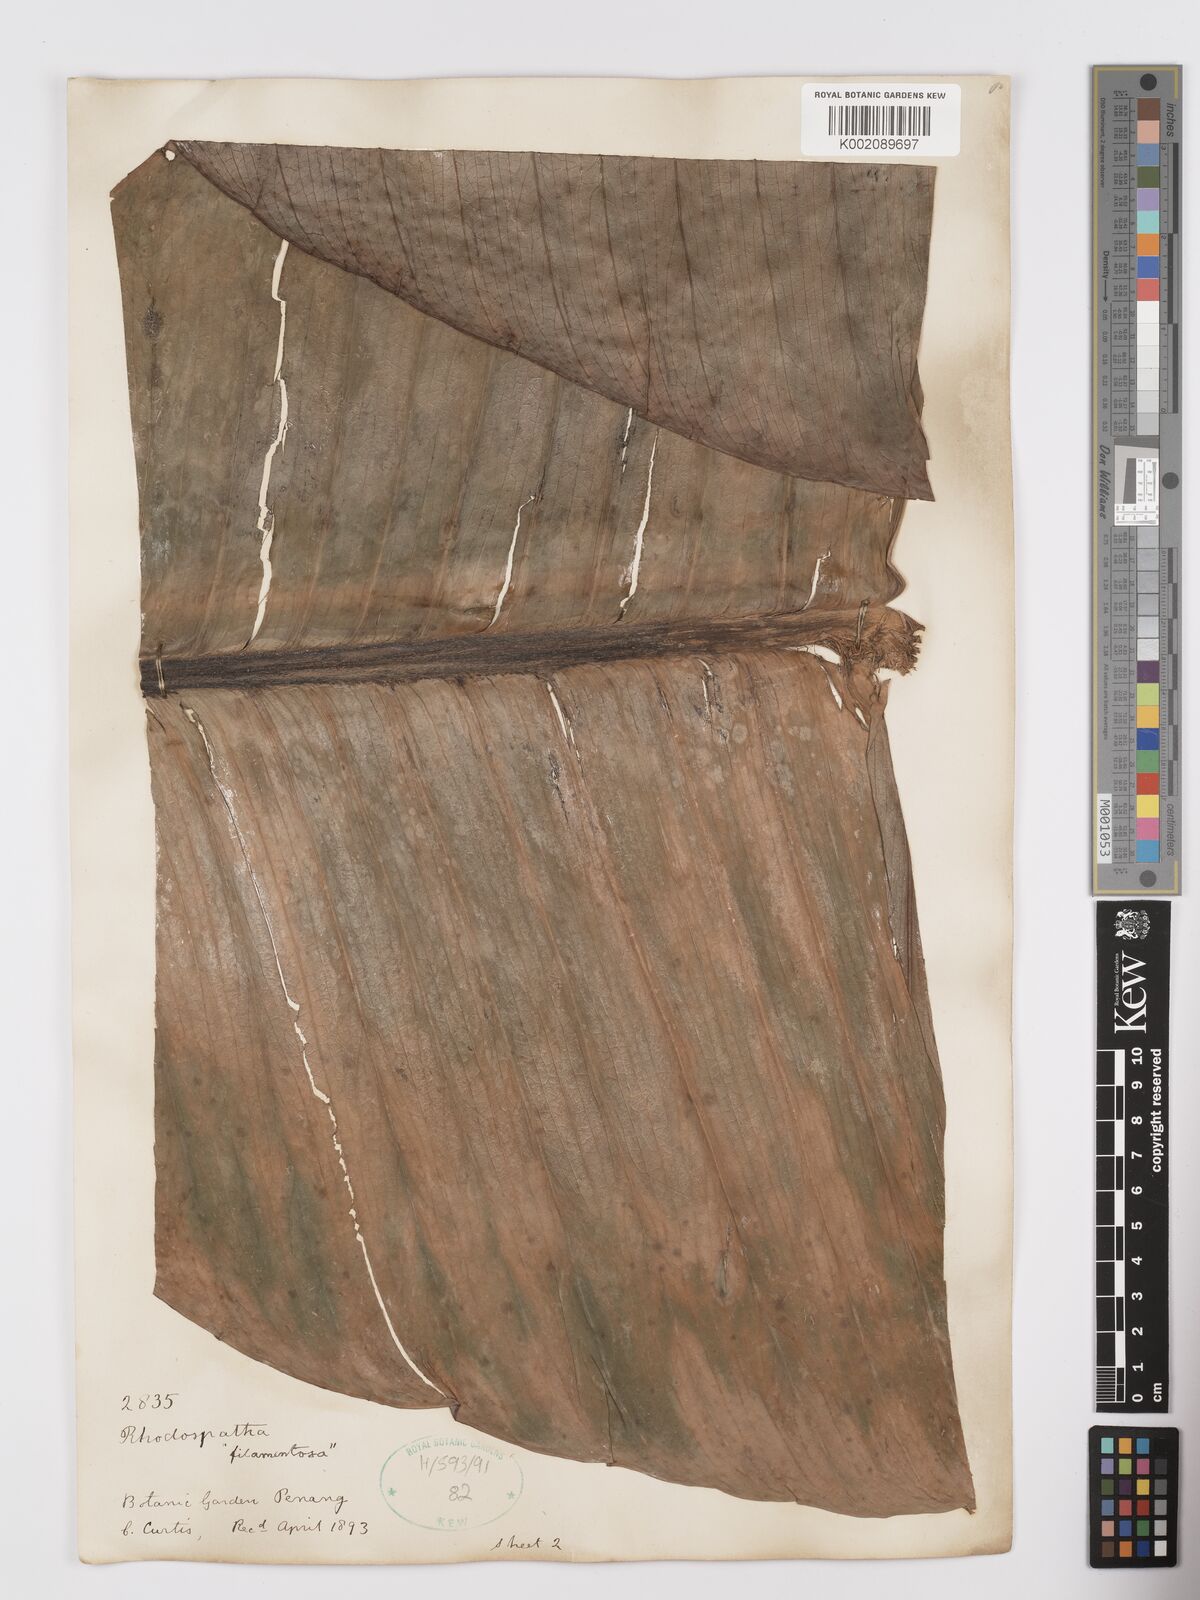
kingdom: Plantae
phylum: Tracheophyta
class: Liliopsida
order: Alismatales
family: Araceae
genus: Rhodospatha
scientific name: Rhodospatha moritziana
